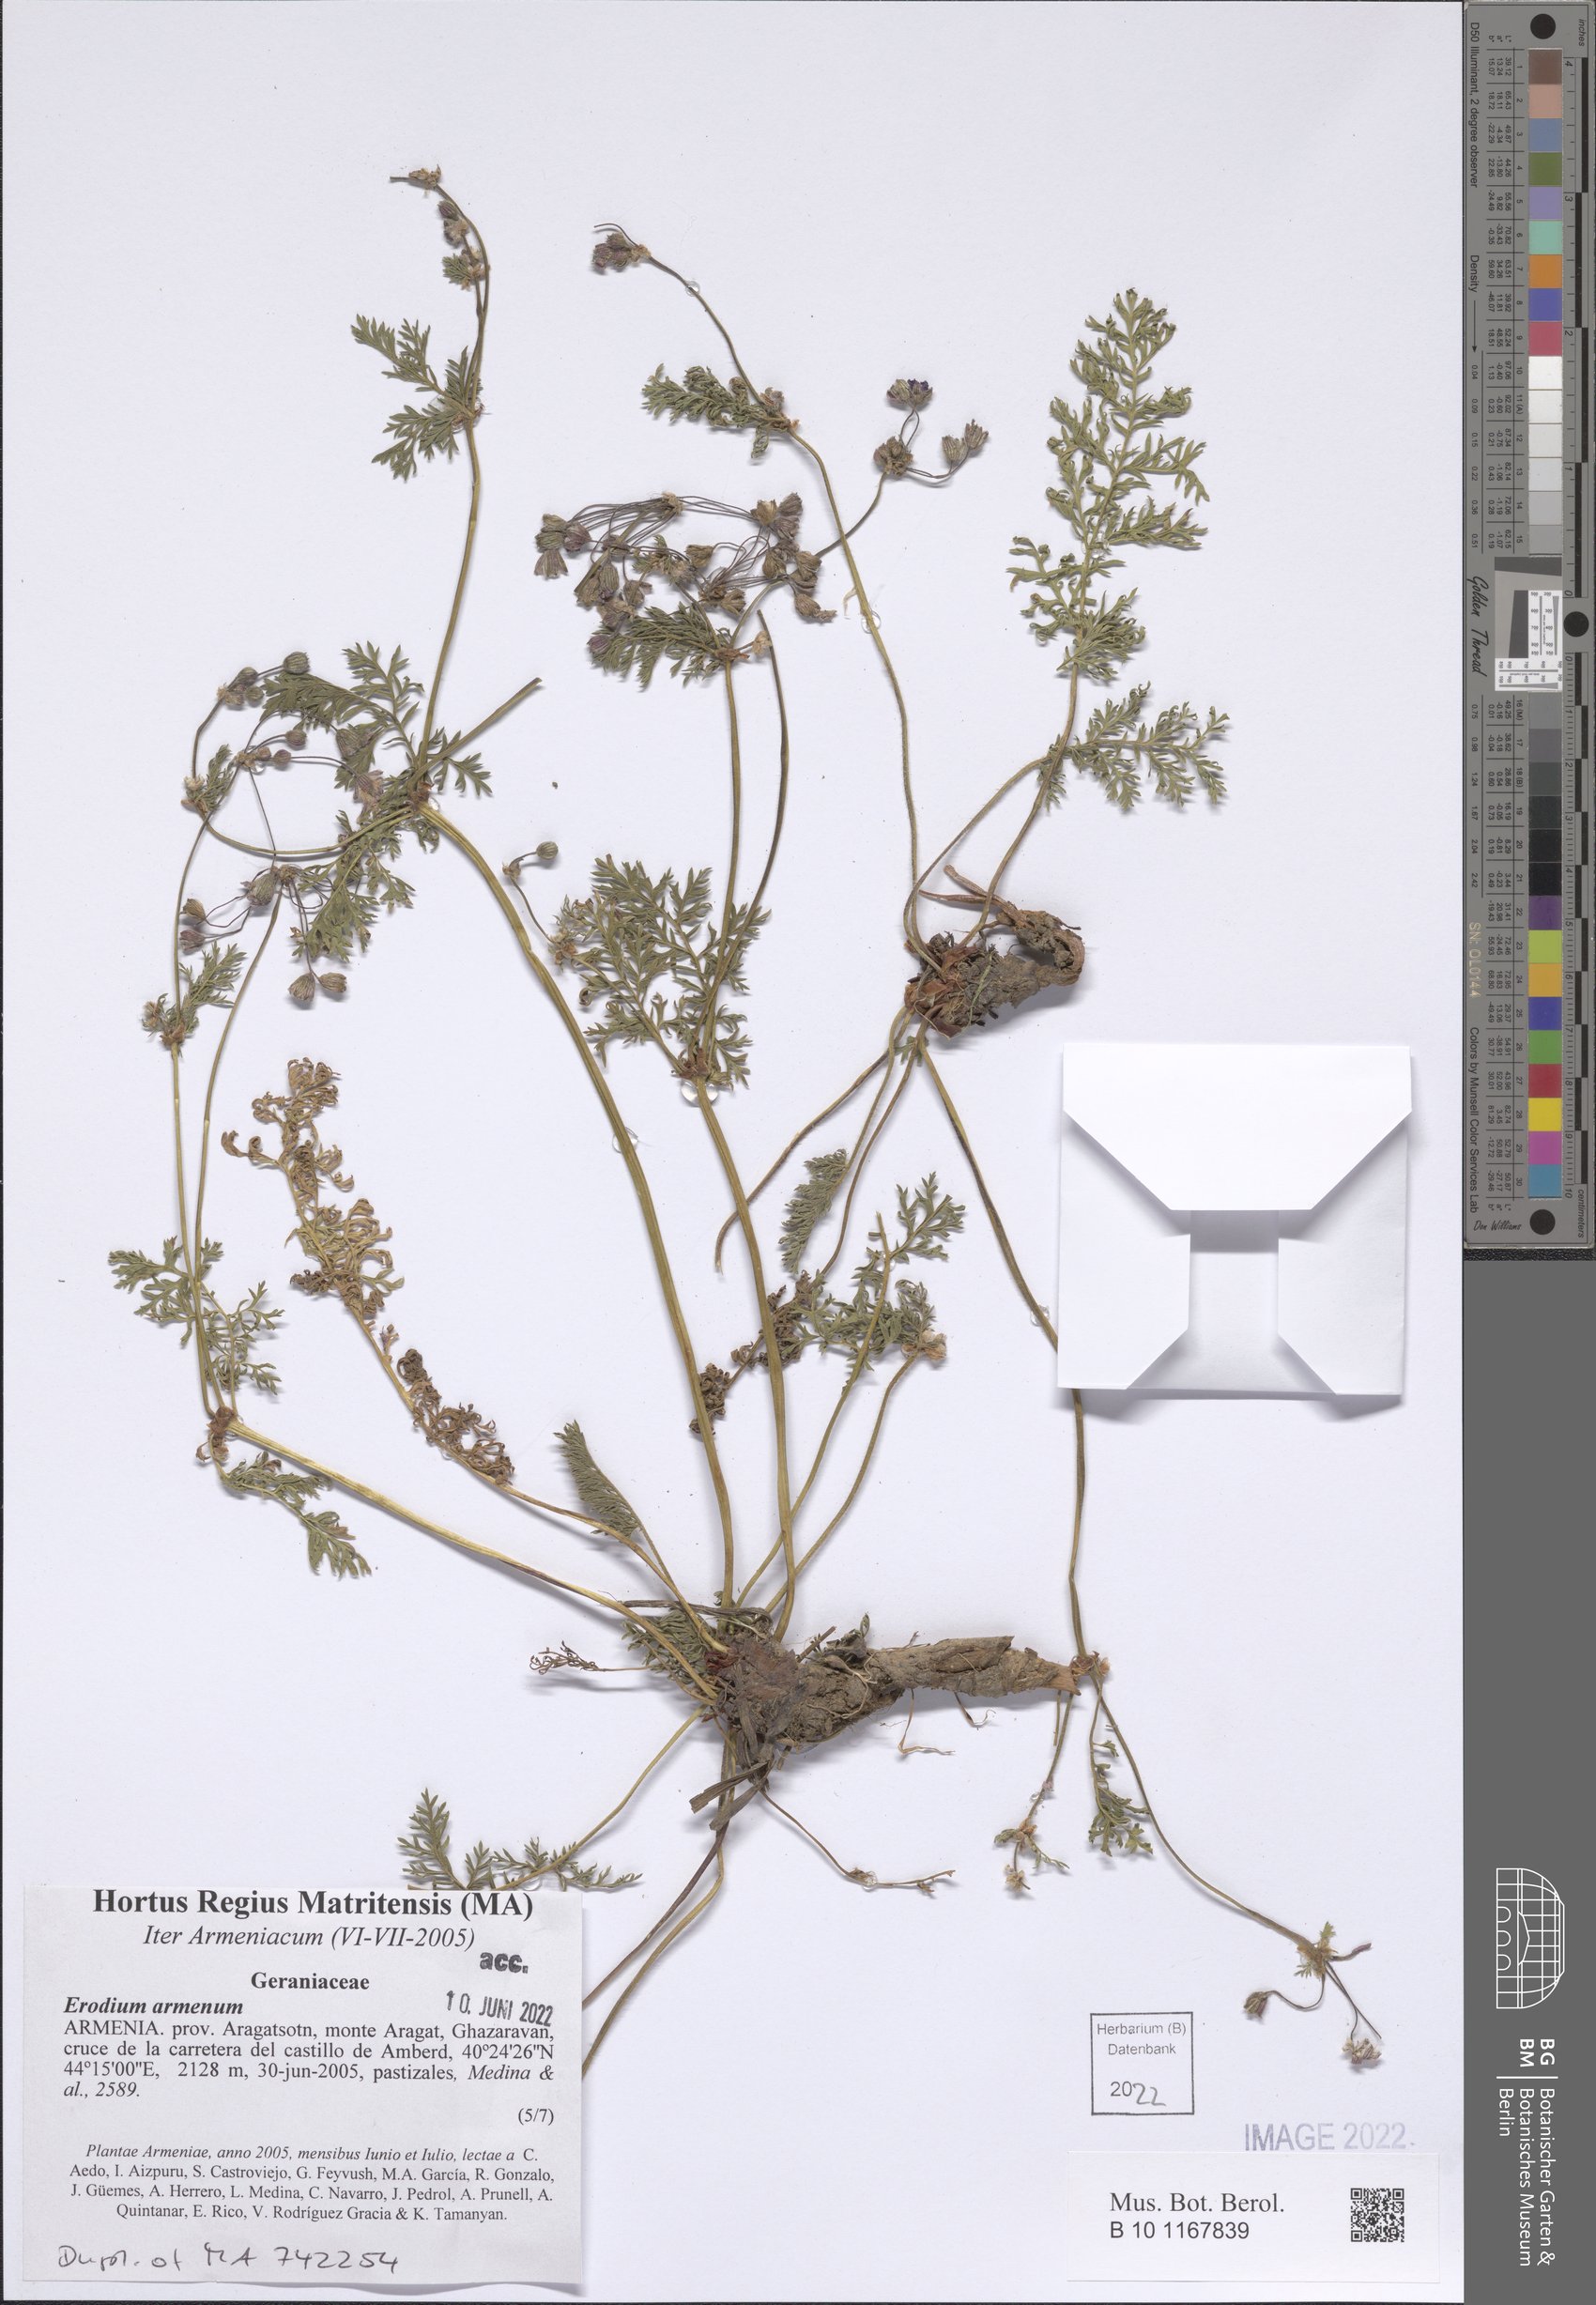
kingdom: Plantae
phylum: Tracheophyta
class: Magnoliopsida
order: Geraniales
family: Geraniaceae
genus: Erodium
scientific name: Erodium absinthoides
